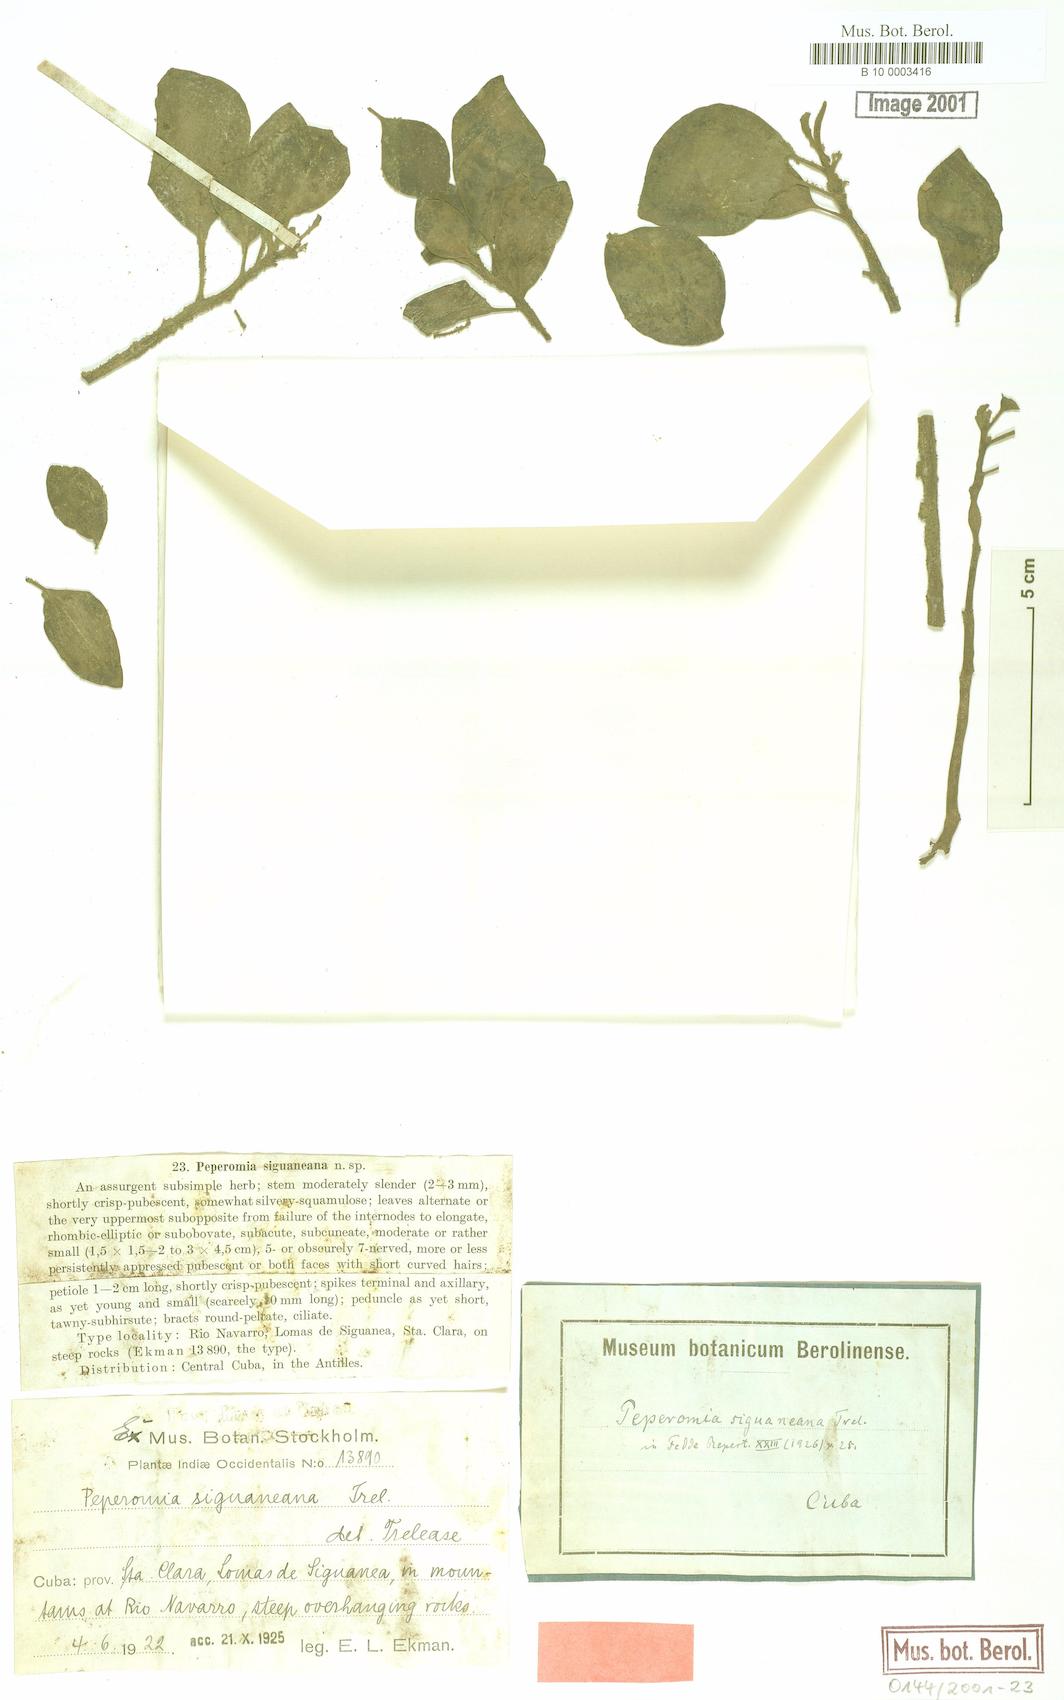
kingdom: Plantae
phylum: Tracheophyta
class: Magnoliopsida
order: Piperales
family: Piperaceae
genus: Peperomia
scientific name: Peperomia hirta
